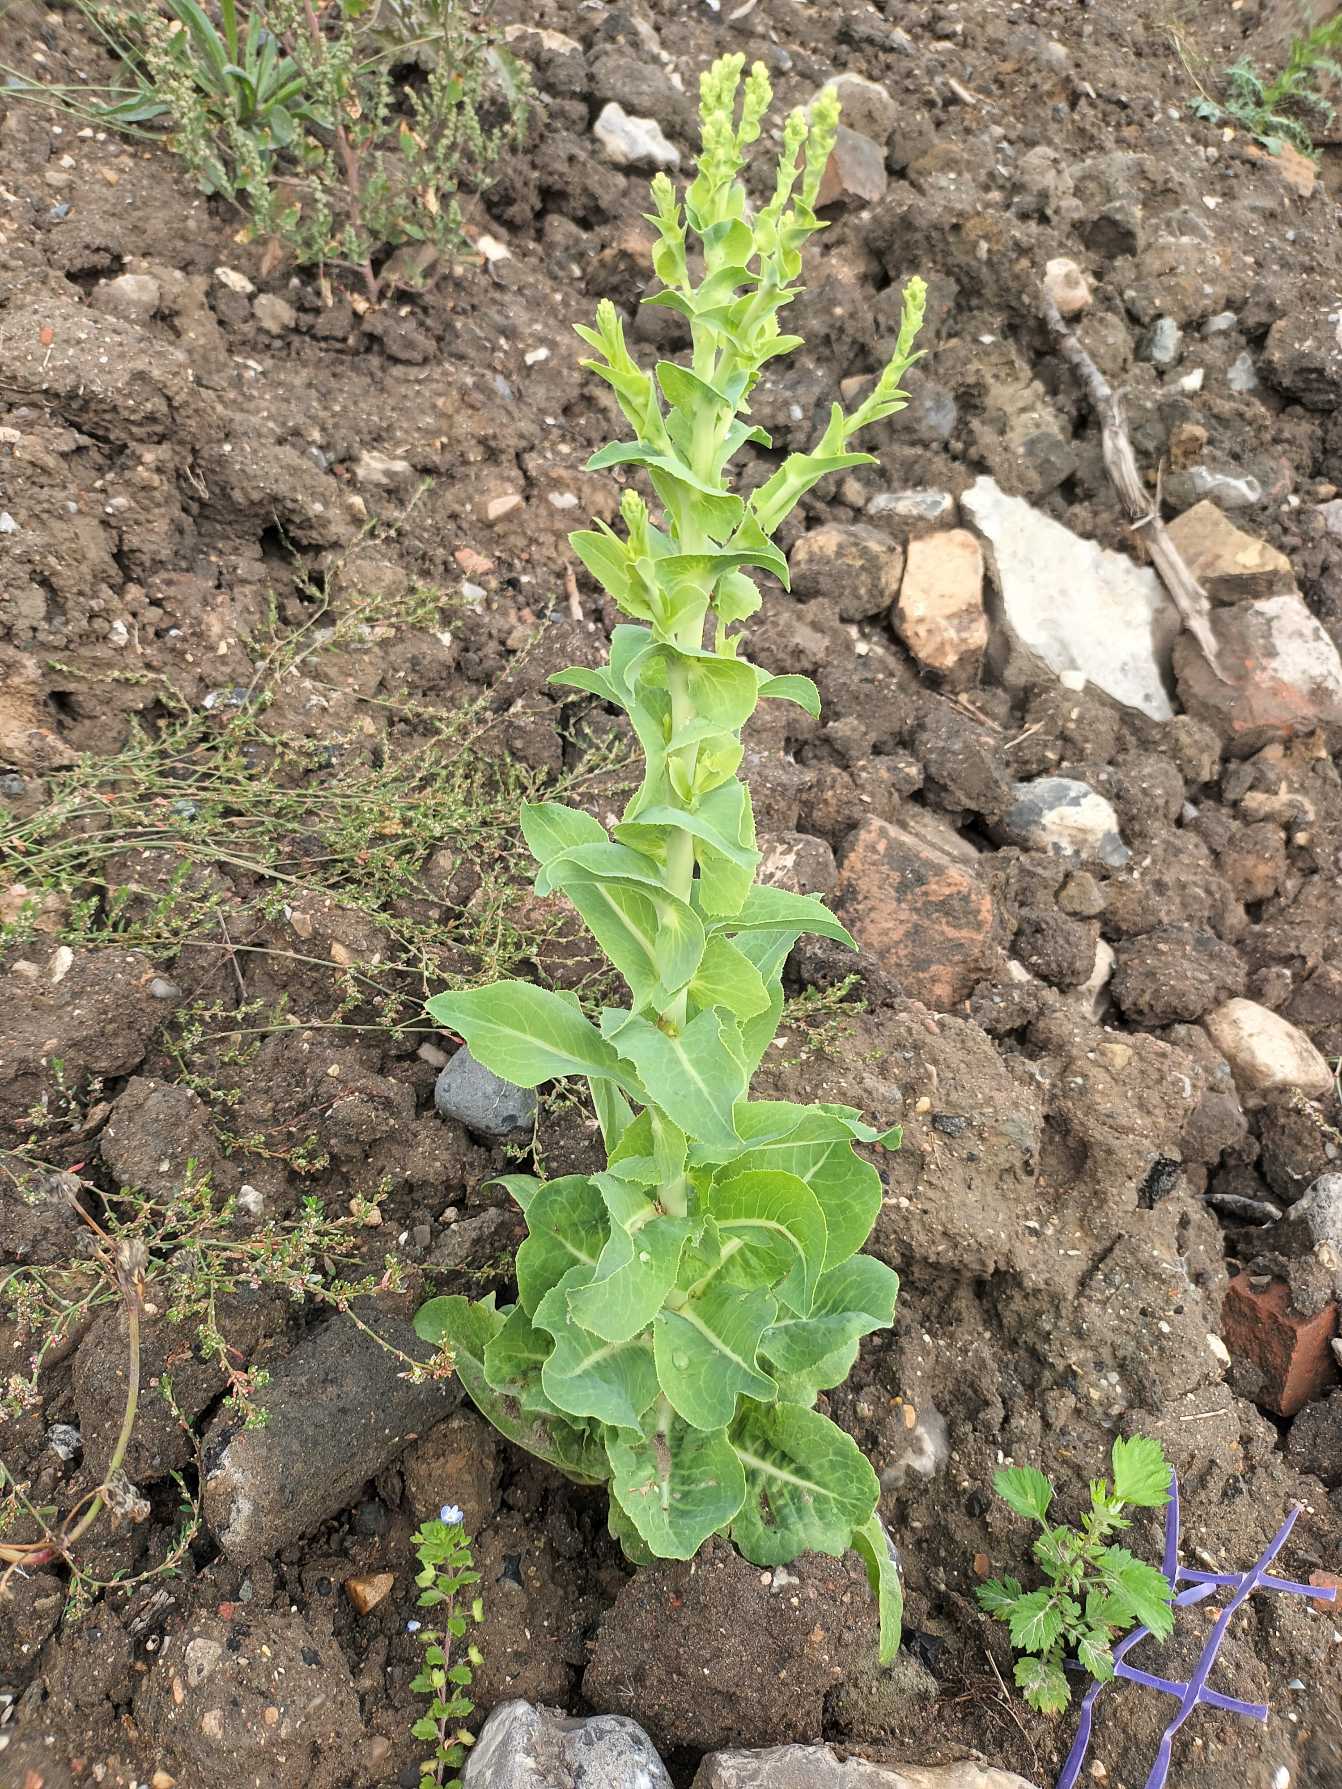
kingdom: Plantae
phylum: Tracheophyta
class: Magnoliopsida
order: Asterales
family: Asteraceae
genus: Lactuca
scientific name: Lactuca sativa
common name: Have-salat
